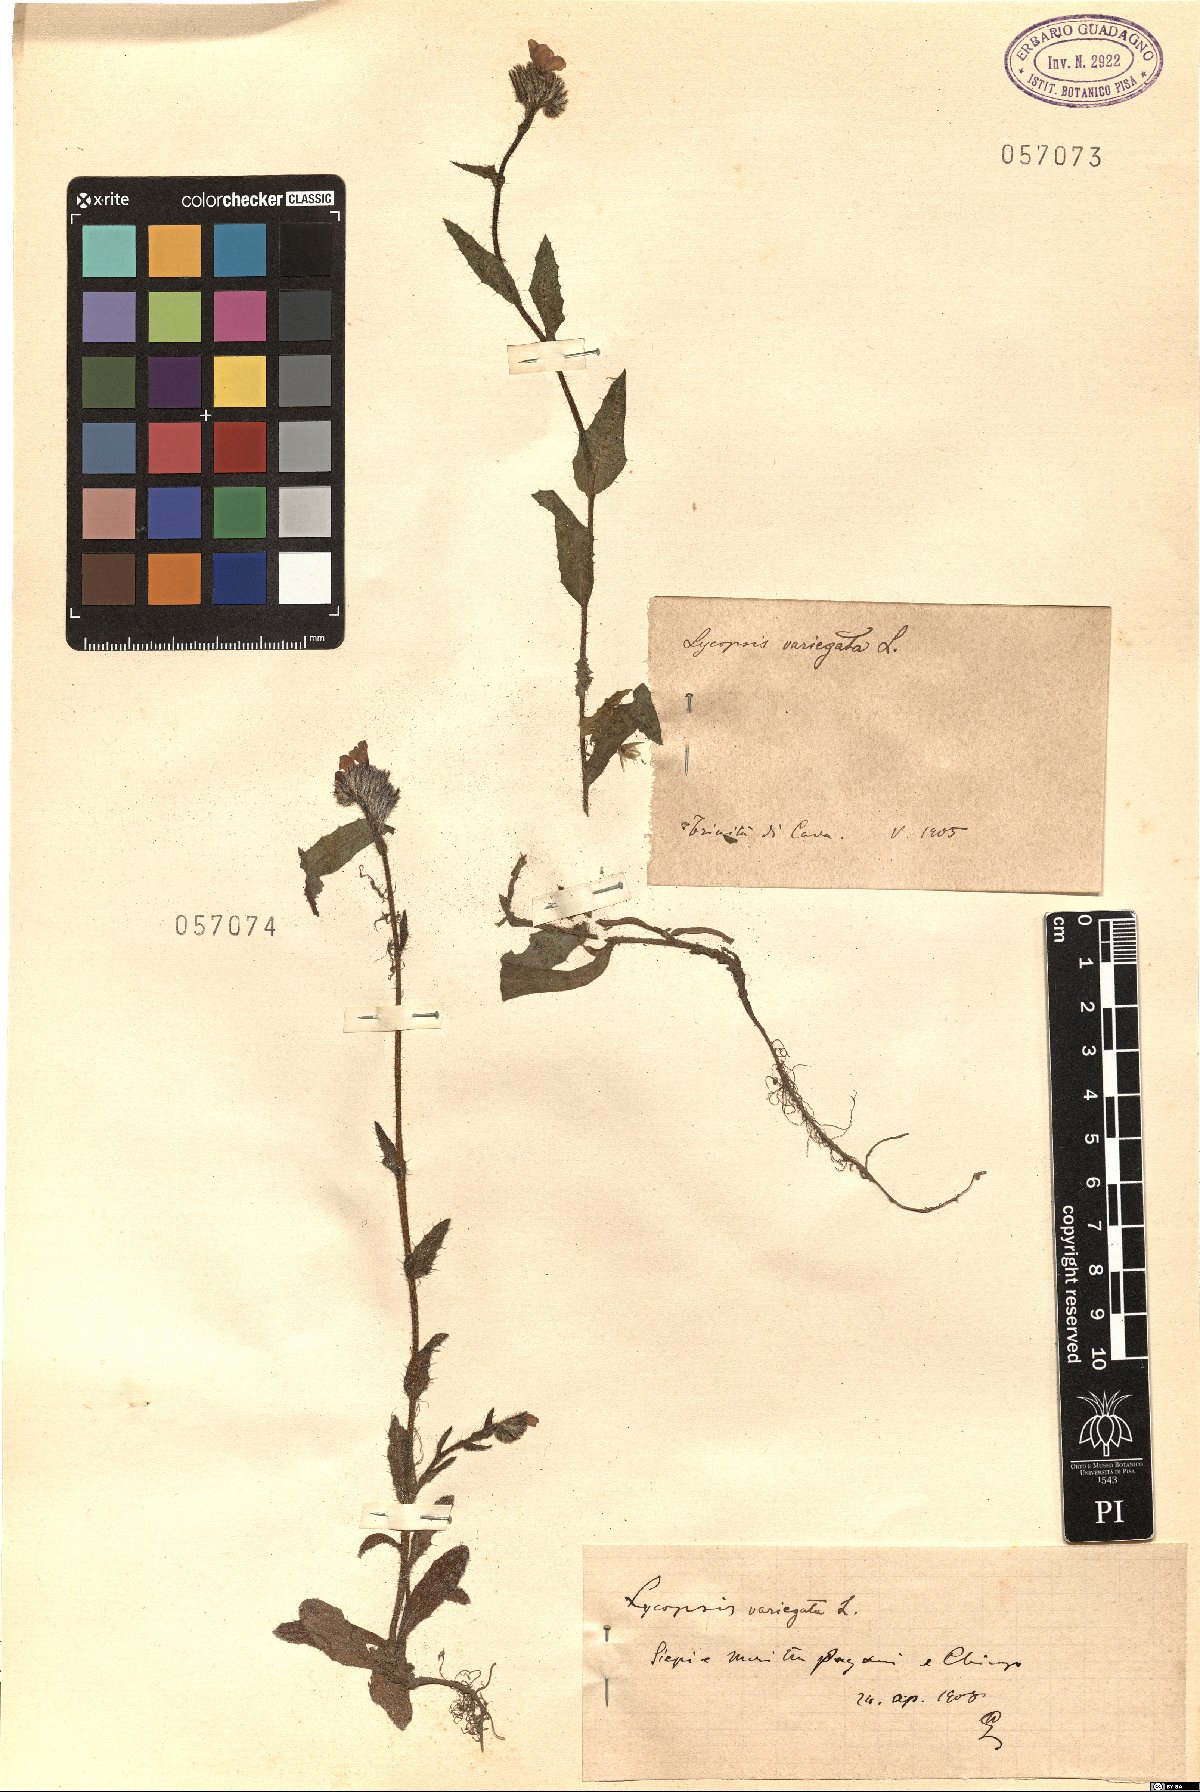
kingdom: Plantae
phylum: Tracheophyta
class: Magnoliopsida
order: Boraginales
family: Boraginaceae
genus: Anchusella
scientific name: Anchusella variegata
